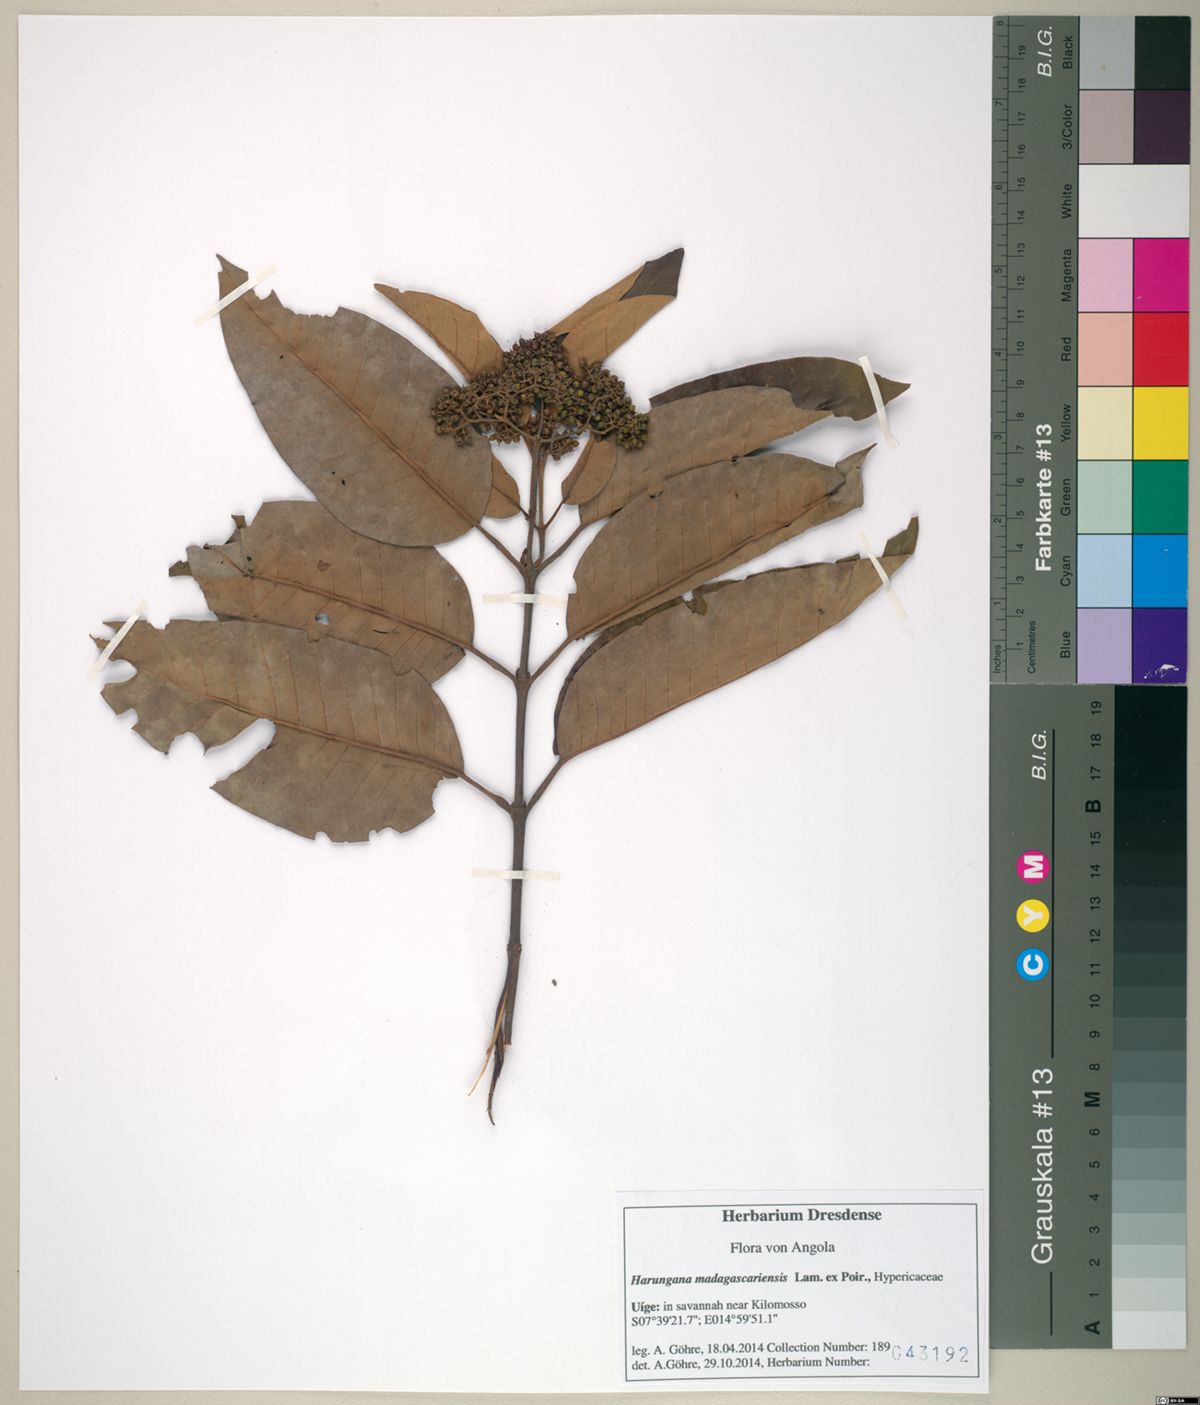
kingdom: Plantae
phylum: Tracheophyta
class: Magnoliopsida
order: Malpighiales
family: Hypericaceae
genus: Harungana
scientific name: Harungana madagascariensis
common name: Orange milktree
